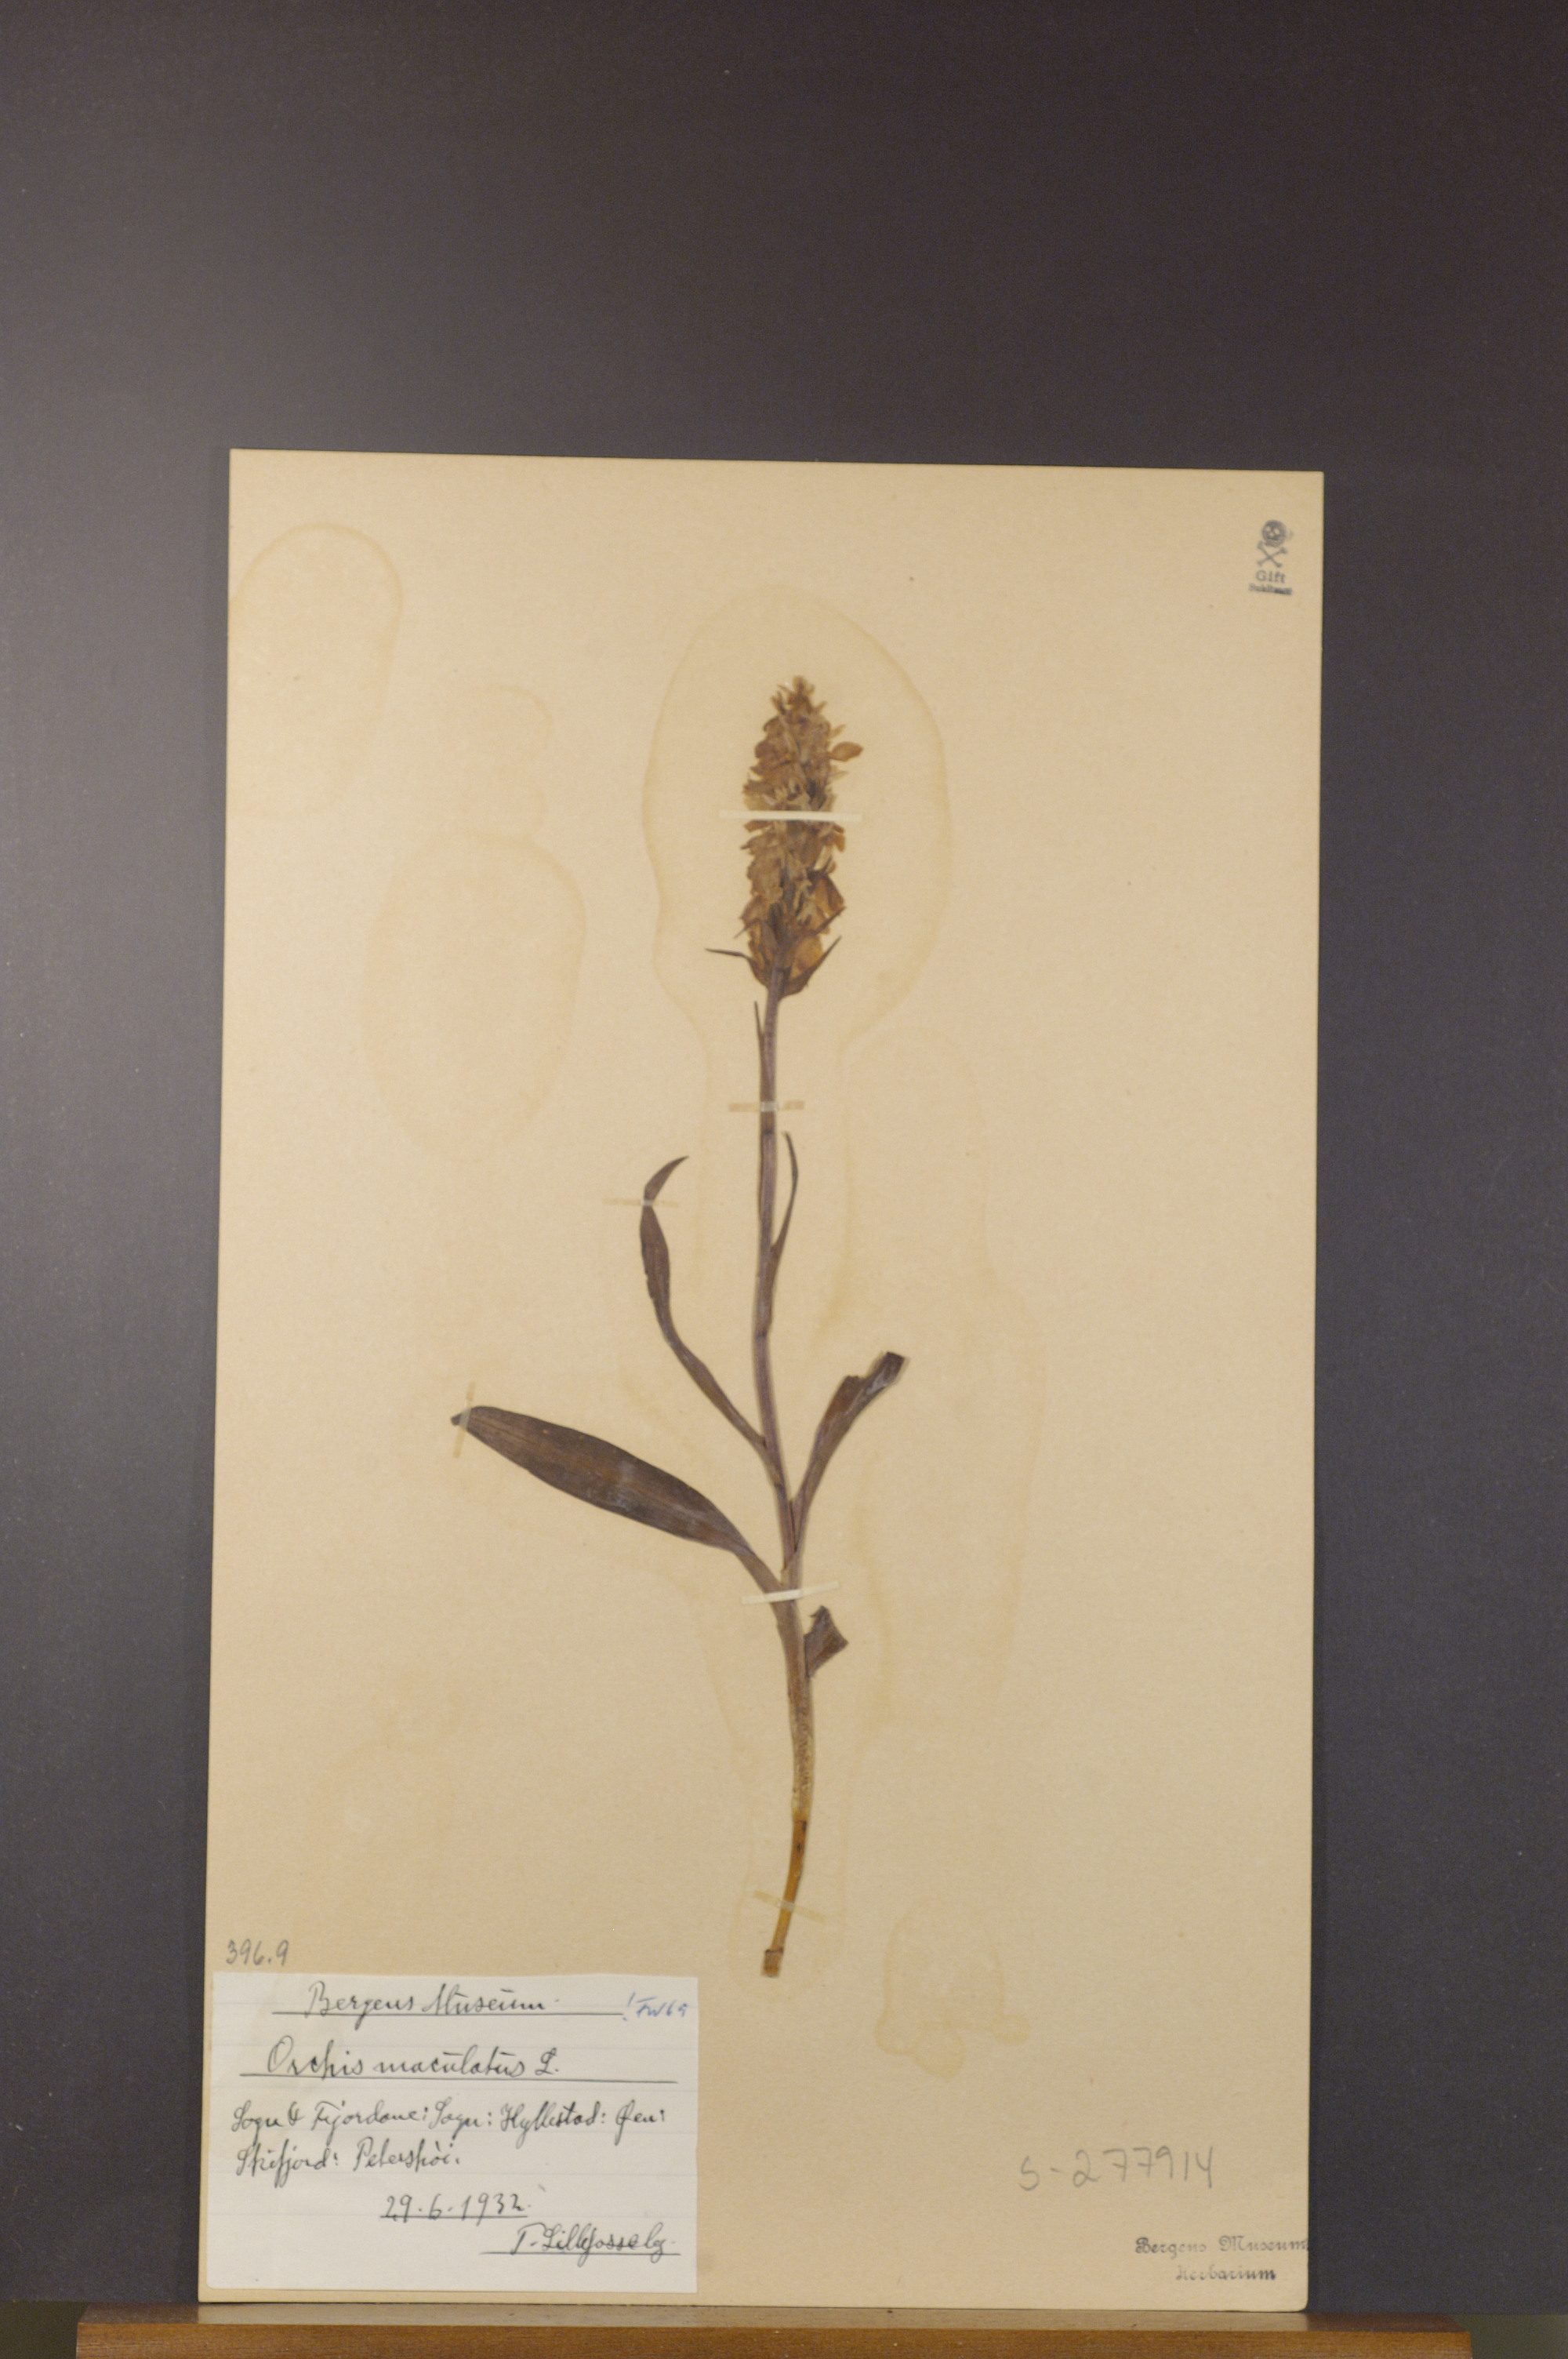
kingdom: Plantae
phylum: Tracheophyta
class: Liliopsida
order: Asparagales
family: Orchidaceae
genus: Dactylorhiza
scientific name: Dactylorhiza maculata
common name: Heath spotted-orchid
